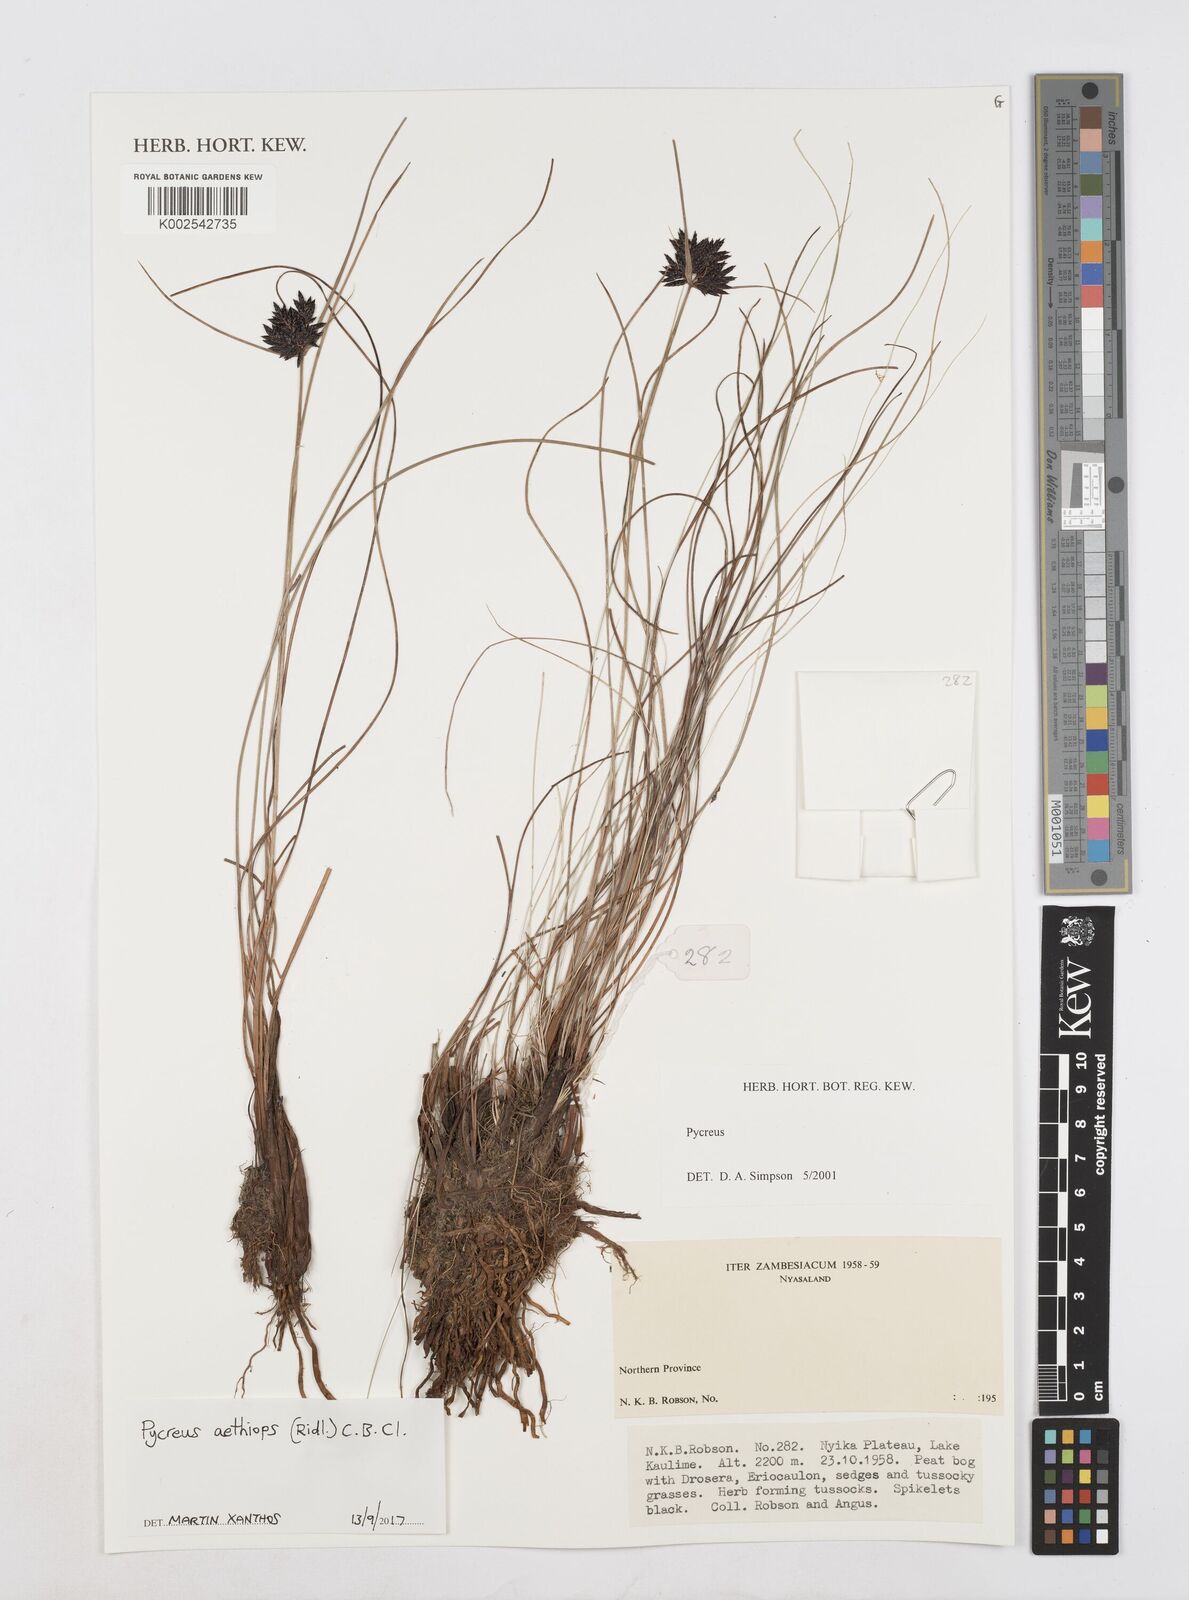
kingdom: Plantae
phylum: Tracheophyta
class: Liliopsida
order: Poales
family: Cyperaceae
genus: Cyperus
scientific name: Cyperus aethiops
